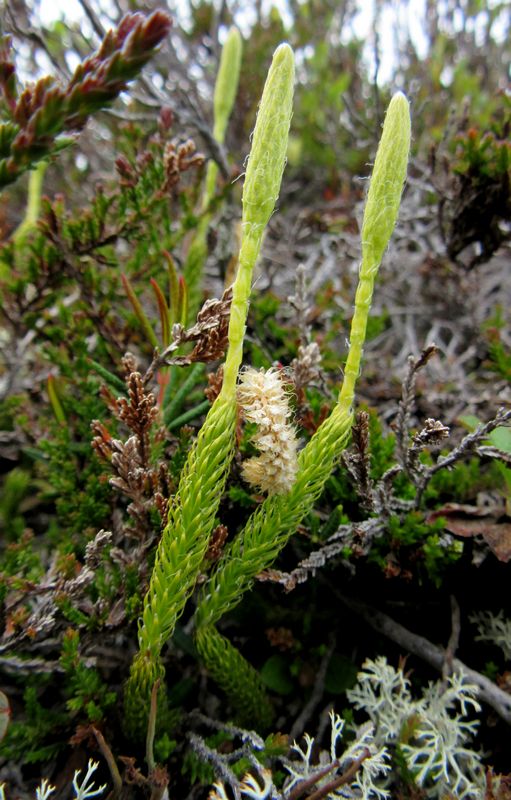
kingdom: Plantae
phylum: Tracheophyta
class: Lycopodiopsida
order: Lycopodiales
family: Lycopodiaceae
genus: Lycopodium
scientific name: Lycopodium lagopus
